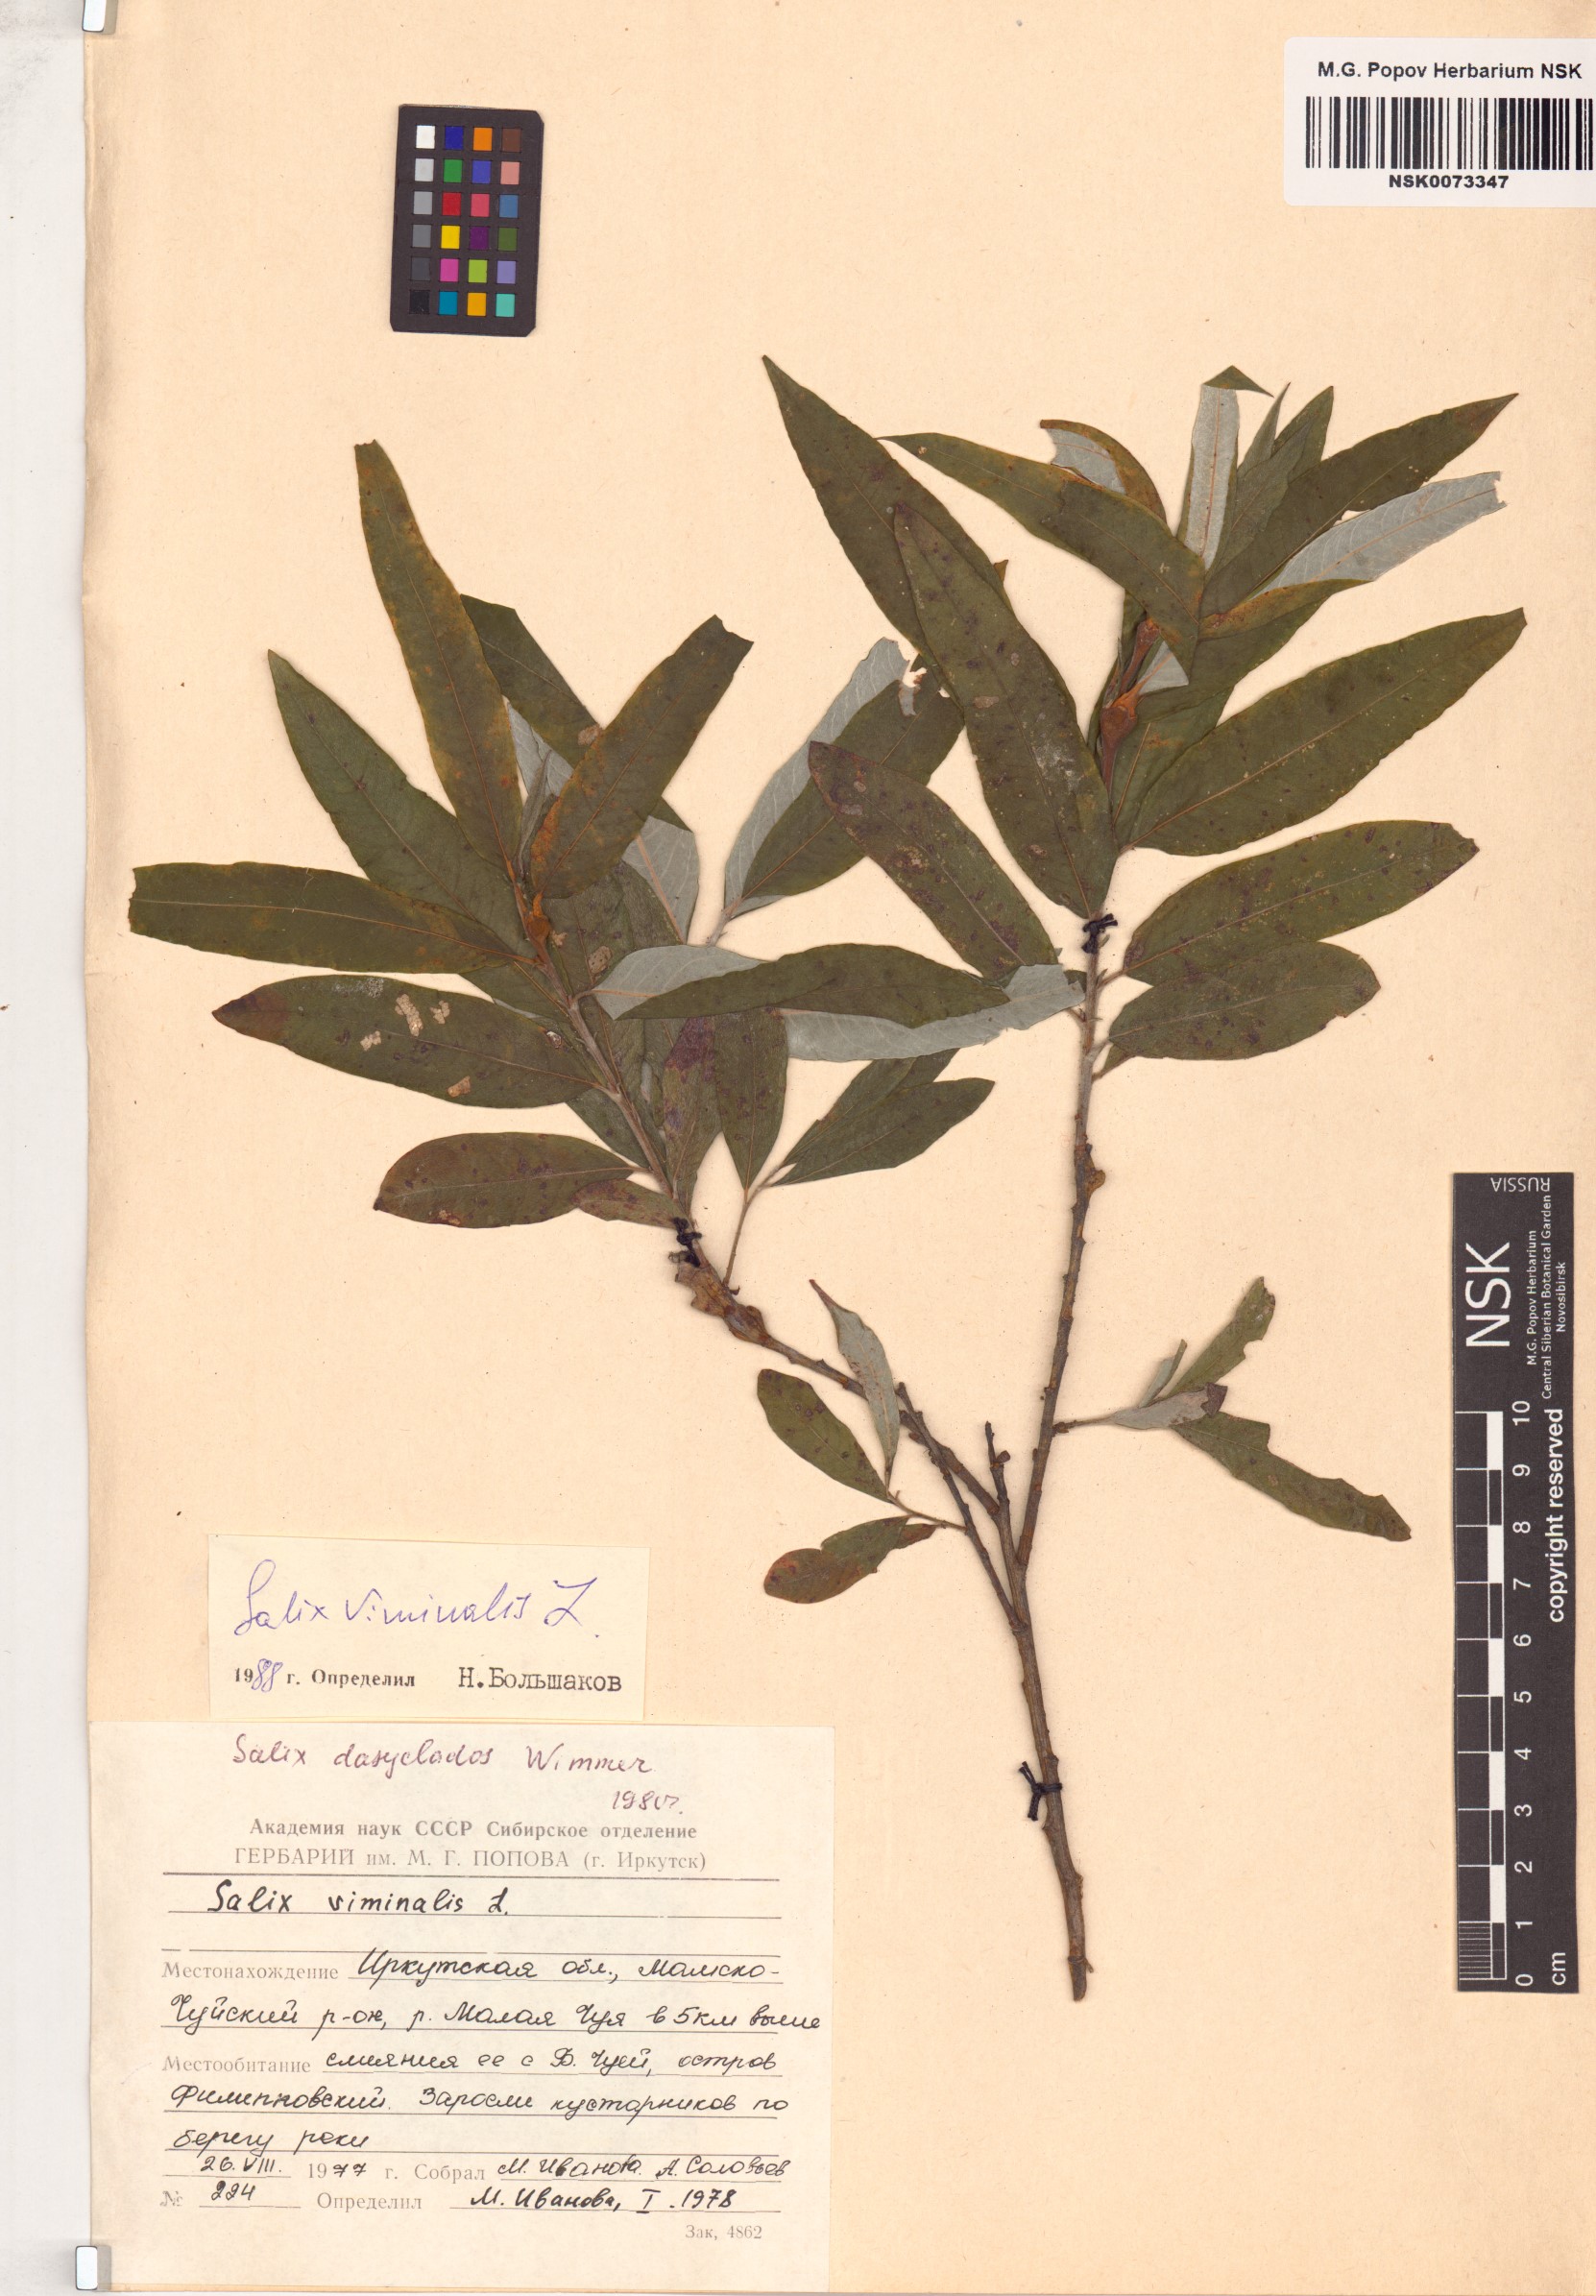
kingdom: Plantae
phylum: Tracheophyta
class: Magnoliopsida
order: Malpighiales
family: Salicaceae
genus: Salix
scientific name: Salix viminalis
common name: Osier
